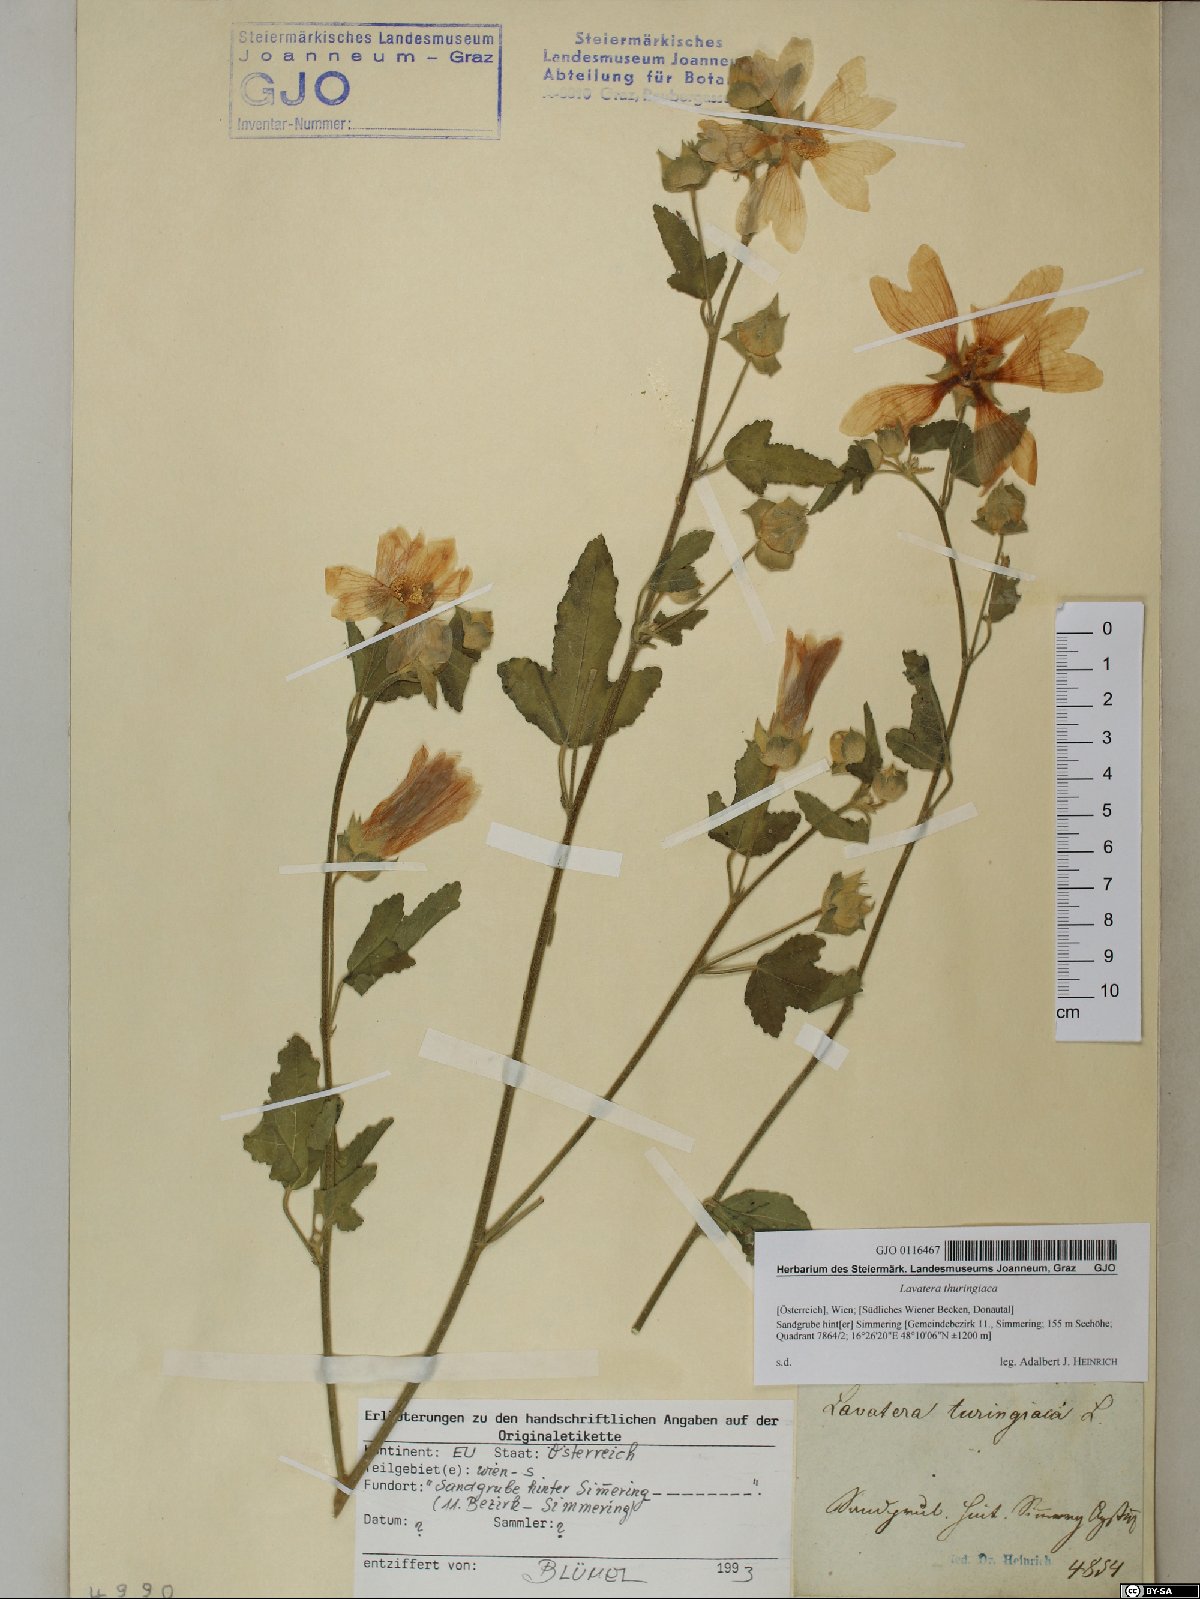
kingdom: Plantae
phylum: Tracheophyta
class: Magnoliopsida
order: Malvales
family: Malvaceae
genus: Malva
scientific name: Malva thuringiaca
